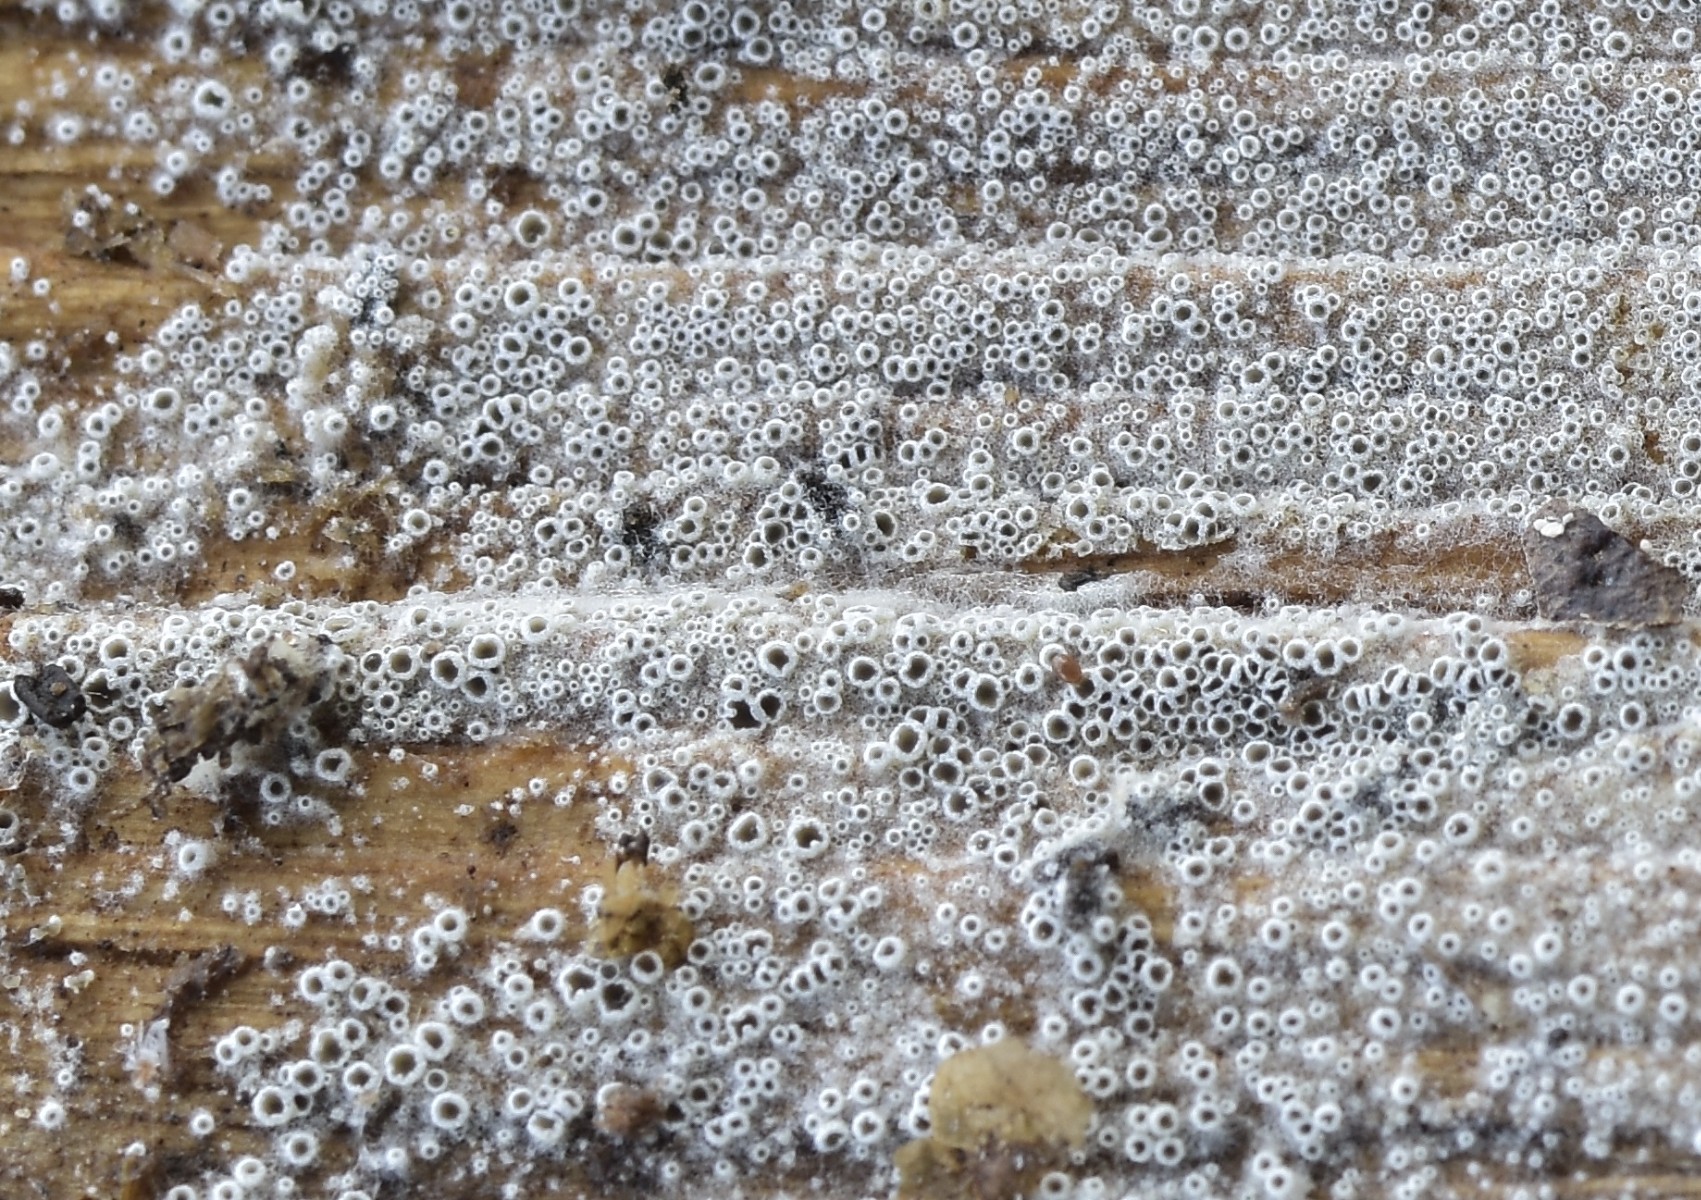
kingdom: Fungi
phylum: Ascomycota
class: Leotiomycetes
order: Helotiales
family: Arachnopezizaceae
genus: Eriopezia
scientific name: Eriopezia caesia
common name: ege-spindskive
